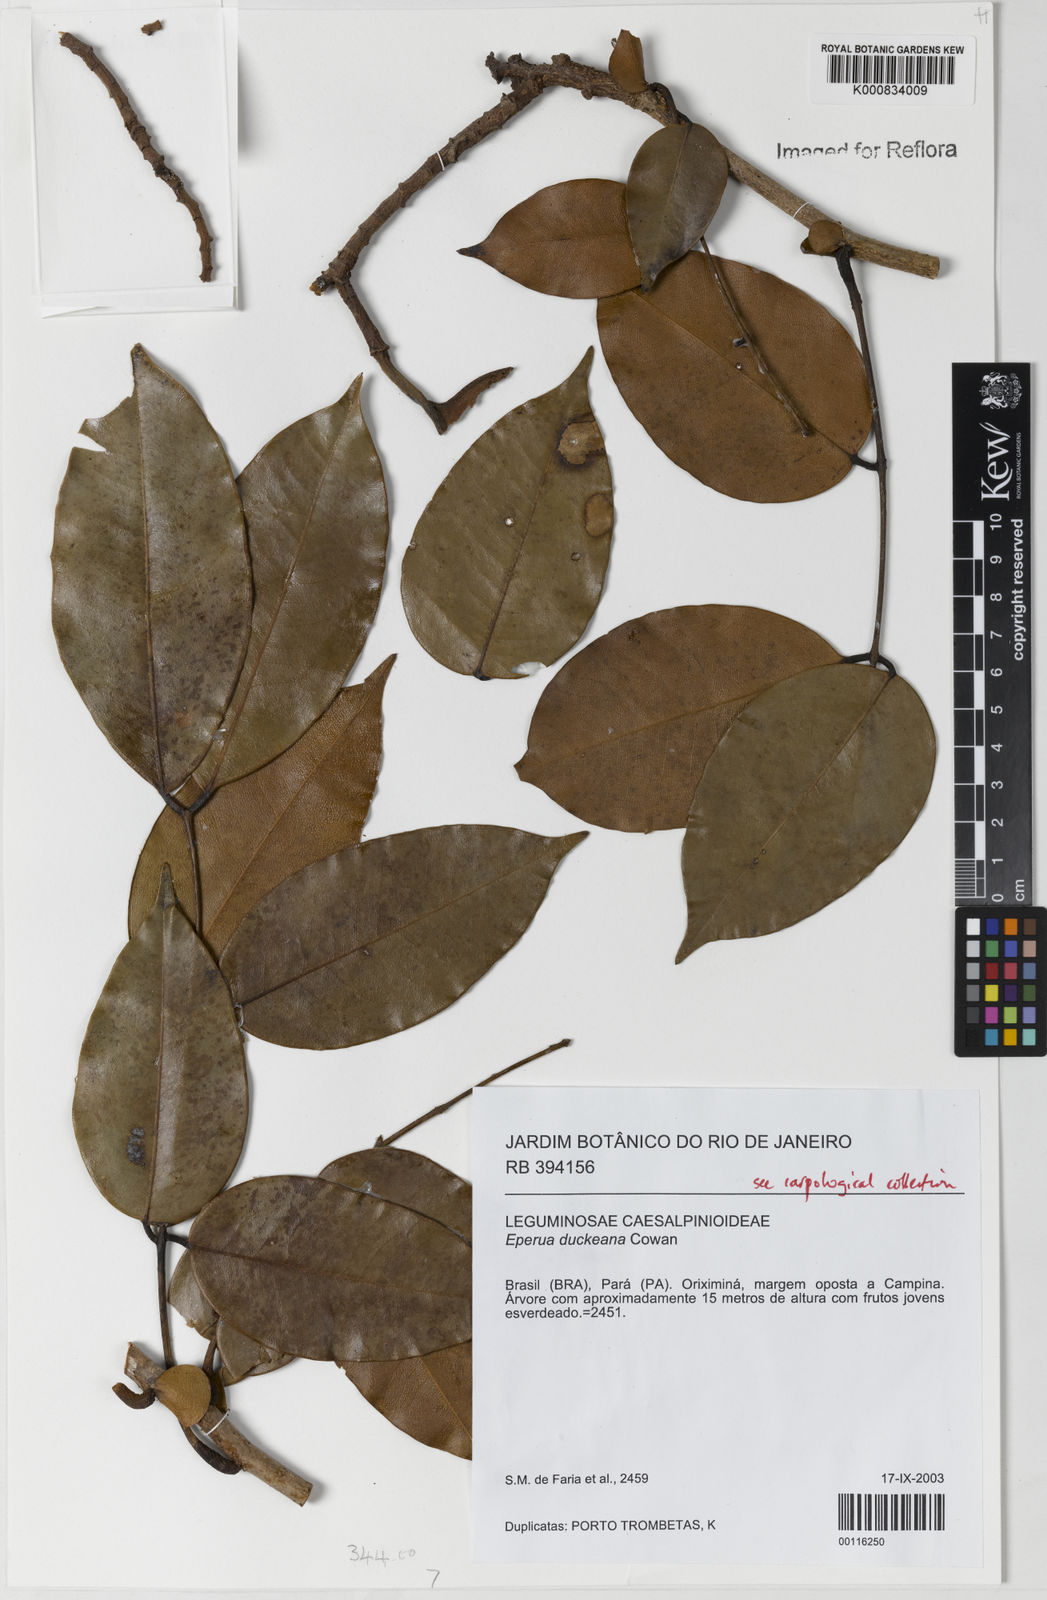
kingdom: Plantae
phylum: Tracheophyta
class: Magnoliopsida
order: Fabales
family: Fabaceae
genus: Eperua
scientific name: Eperua duckeana
